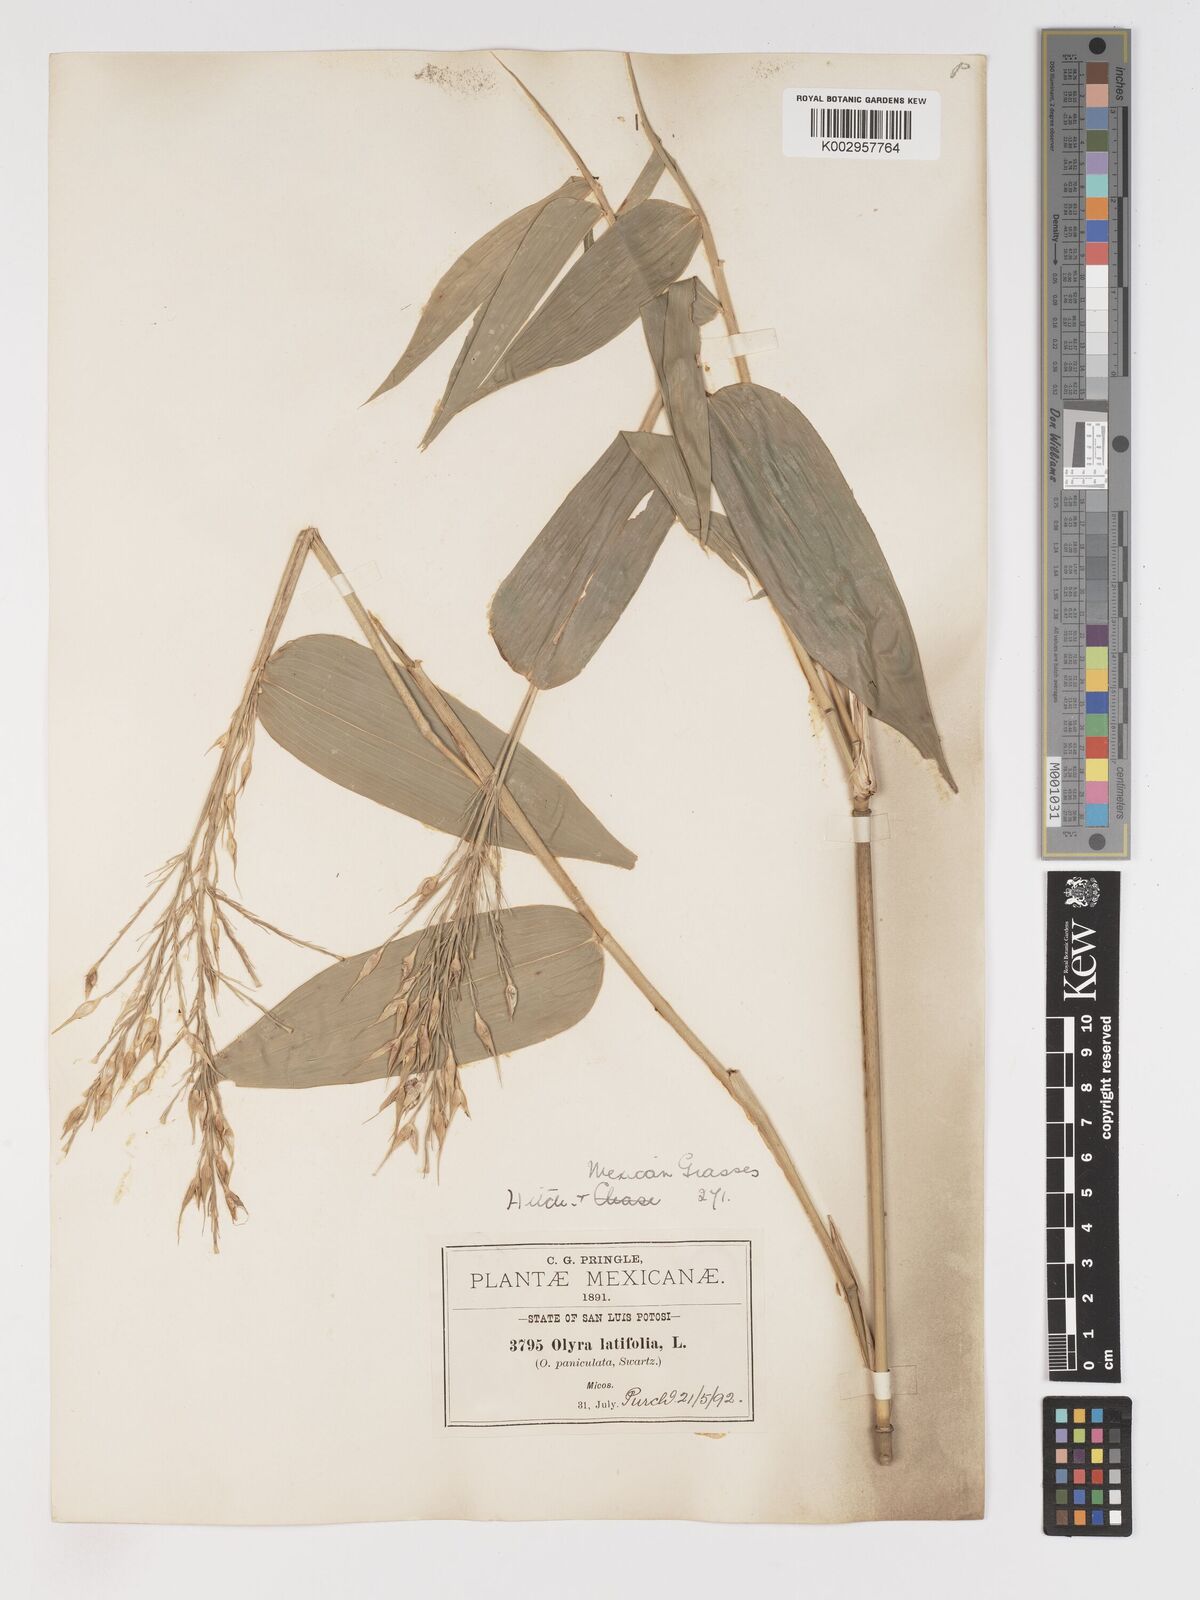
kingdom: Plantae
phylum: Tracheophyta
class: Liliopsida
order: Poales
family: Poaceae
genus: Olyra
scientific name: Olyra latifolia
